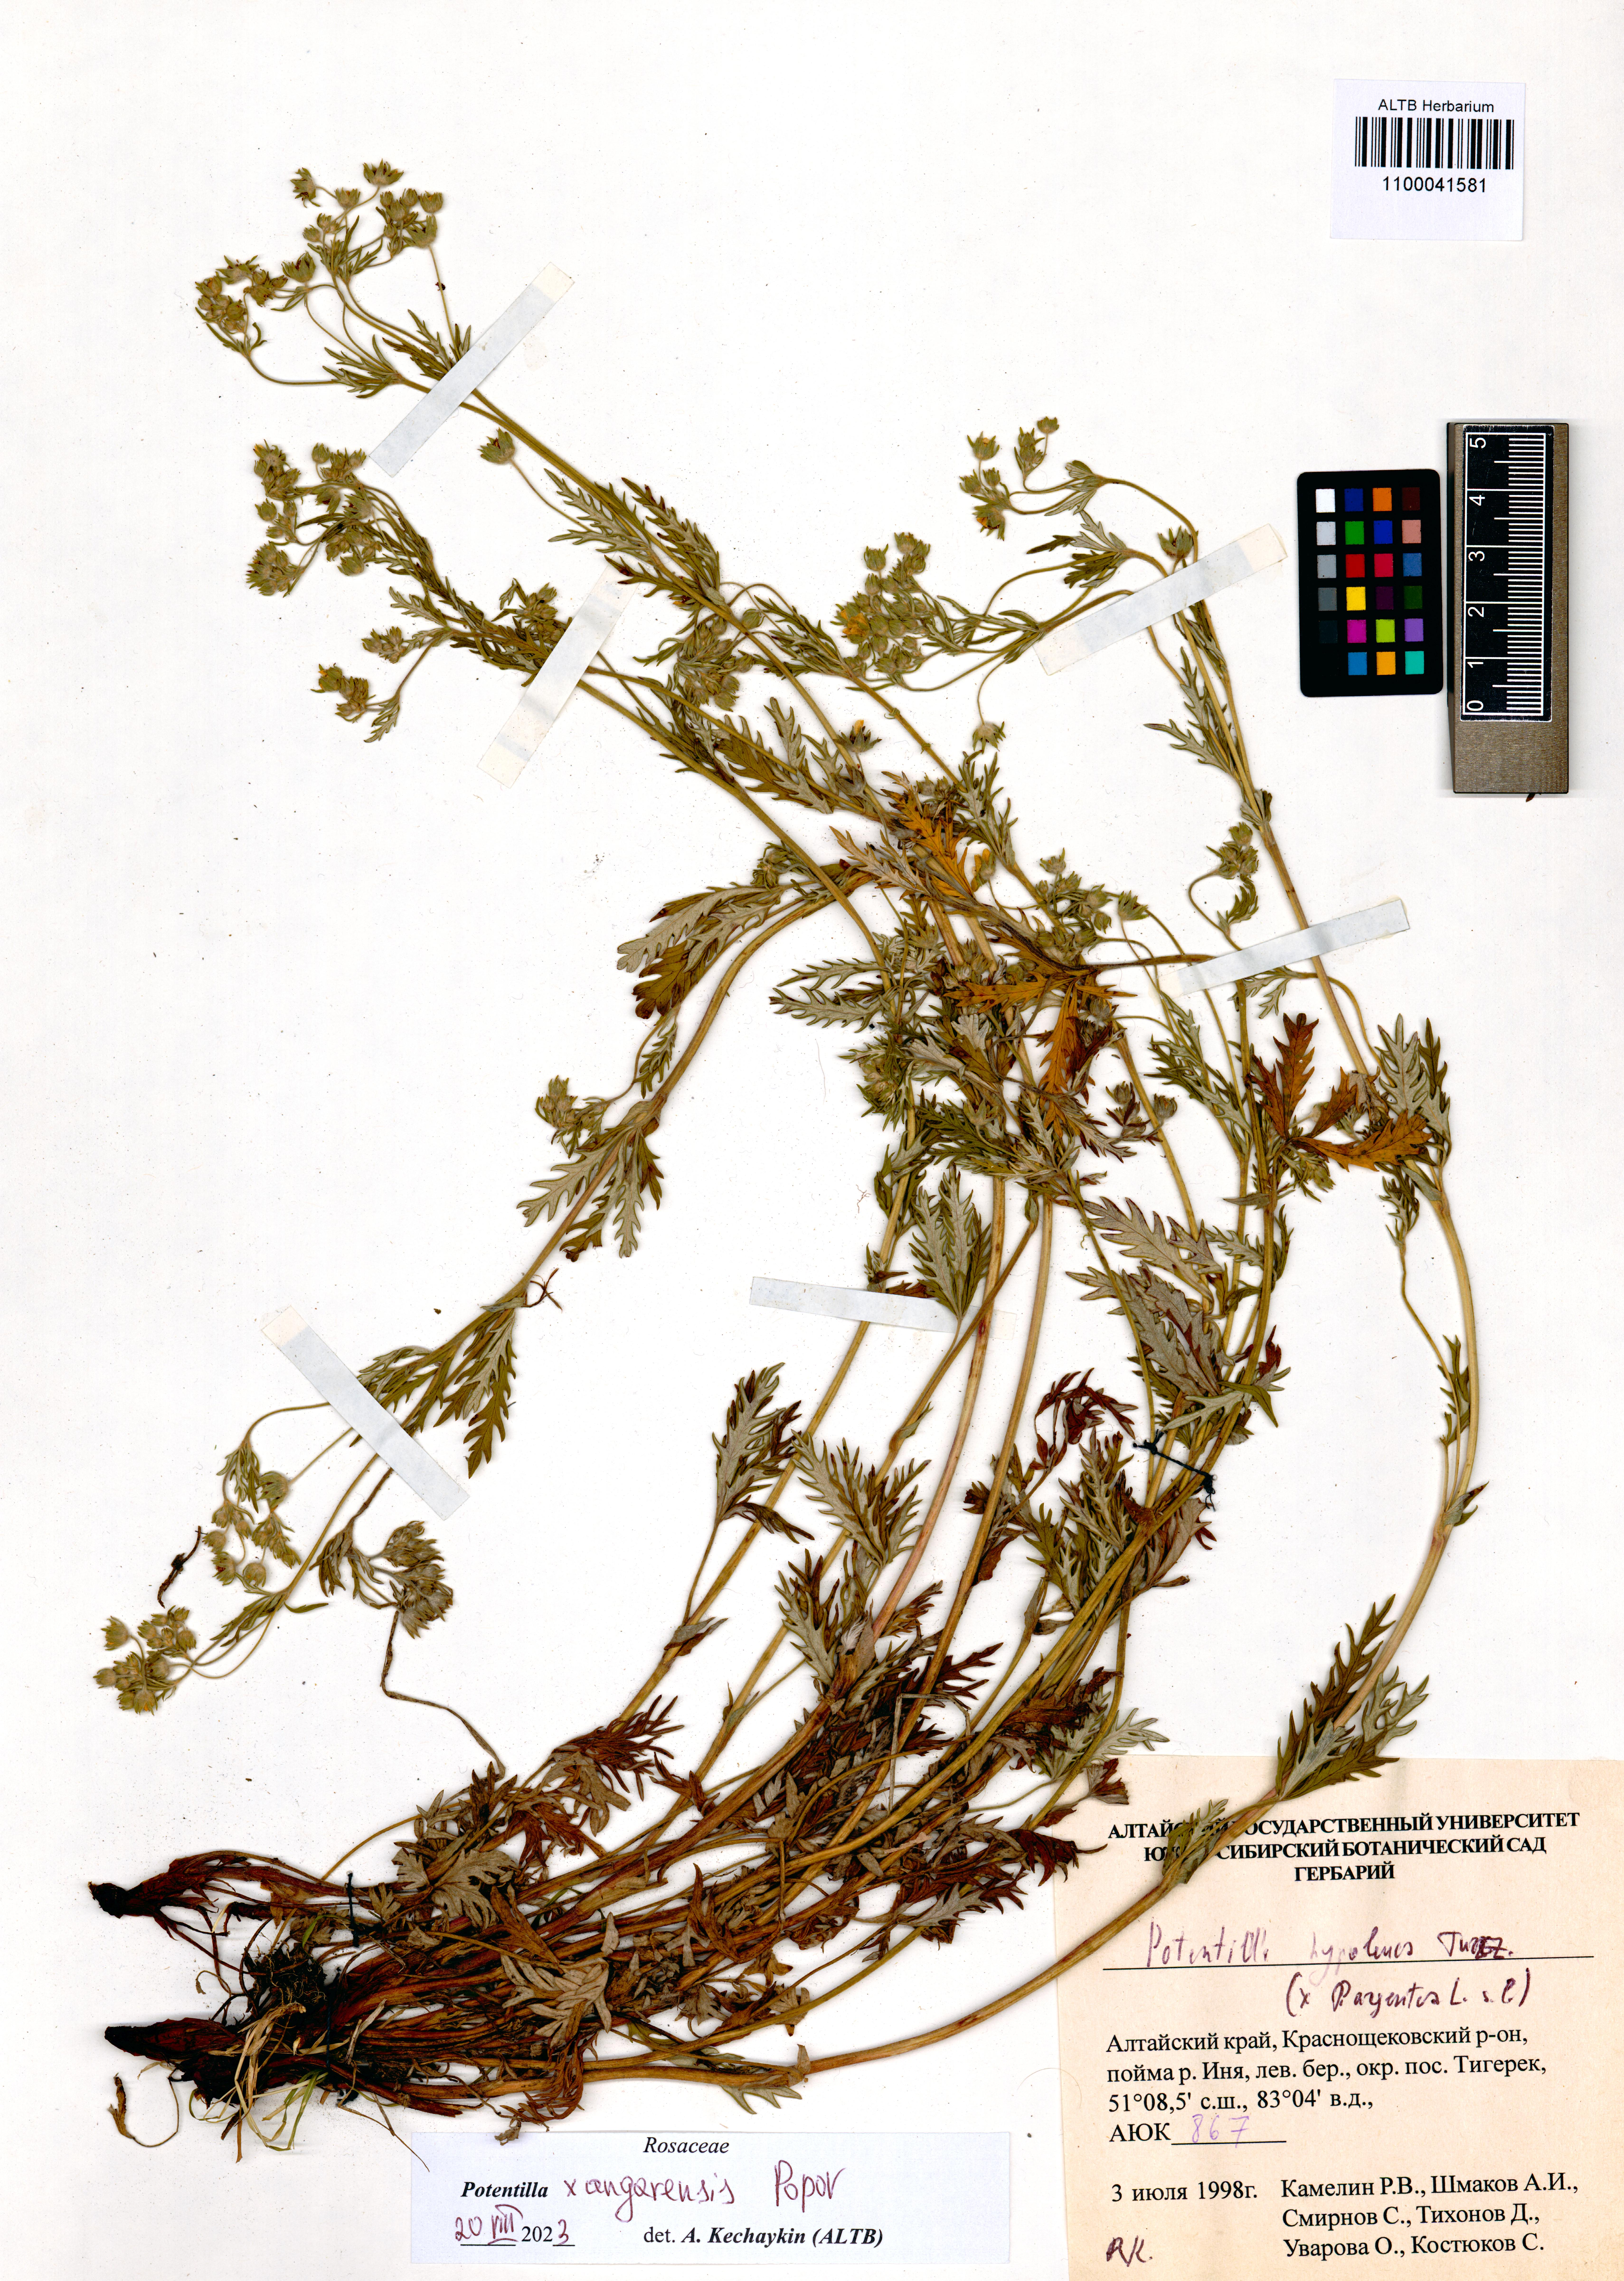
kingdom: Plantae
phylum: Tracheophyta
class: Magnoliopsida
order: Rosales
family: Rosaceae
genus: Potentilla
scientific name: Potentilla angarensis
